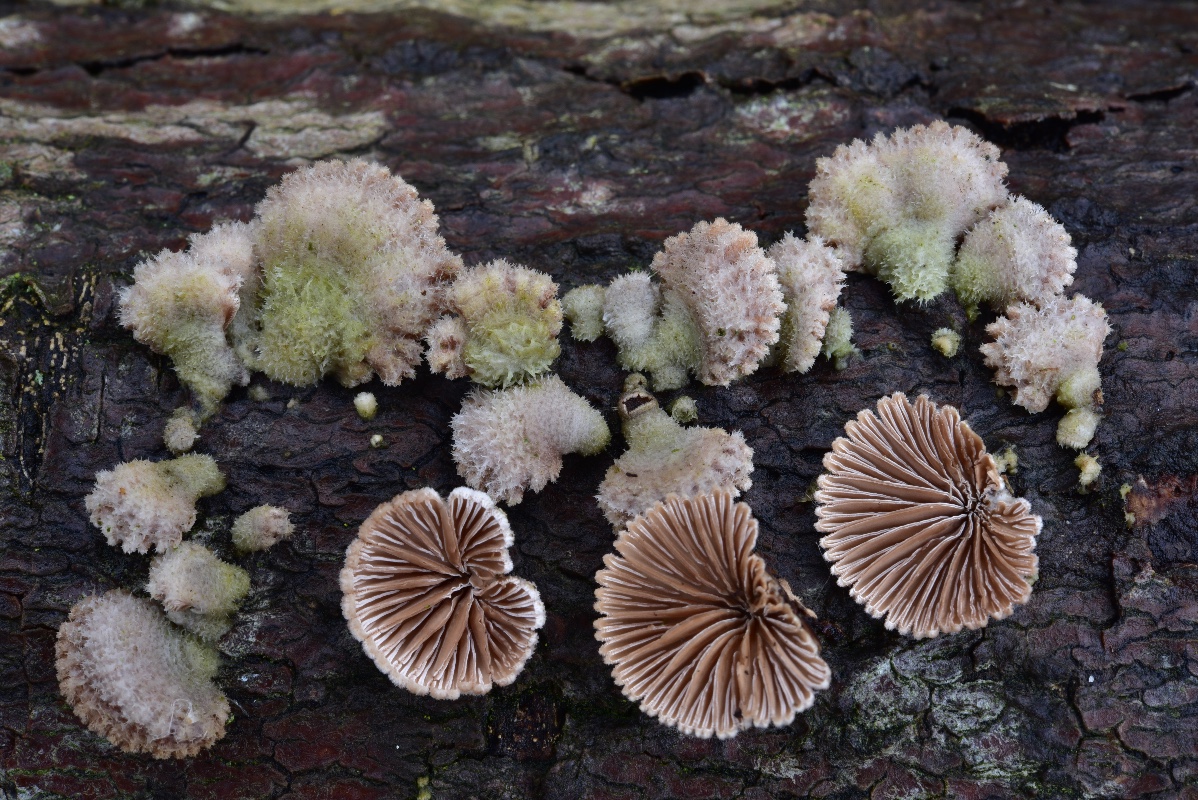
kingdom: Fungi
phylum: Basidiomycota
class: Agaricomycetes
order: Agaricales
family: Schizophyllaceae
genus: Schizophyllum
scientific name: Schizophyllum commune
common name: kløvblad
